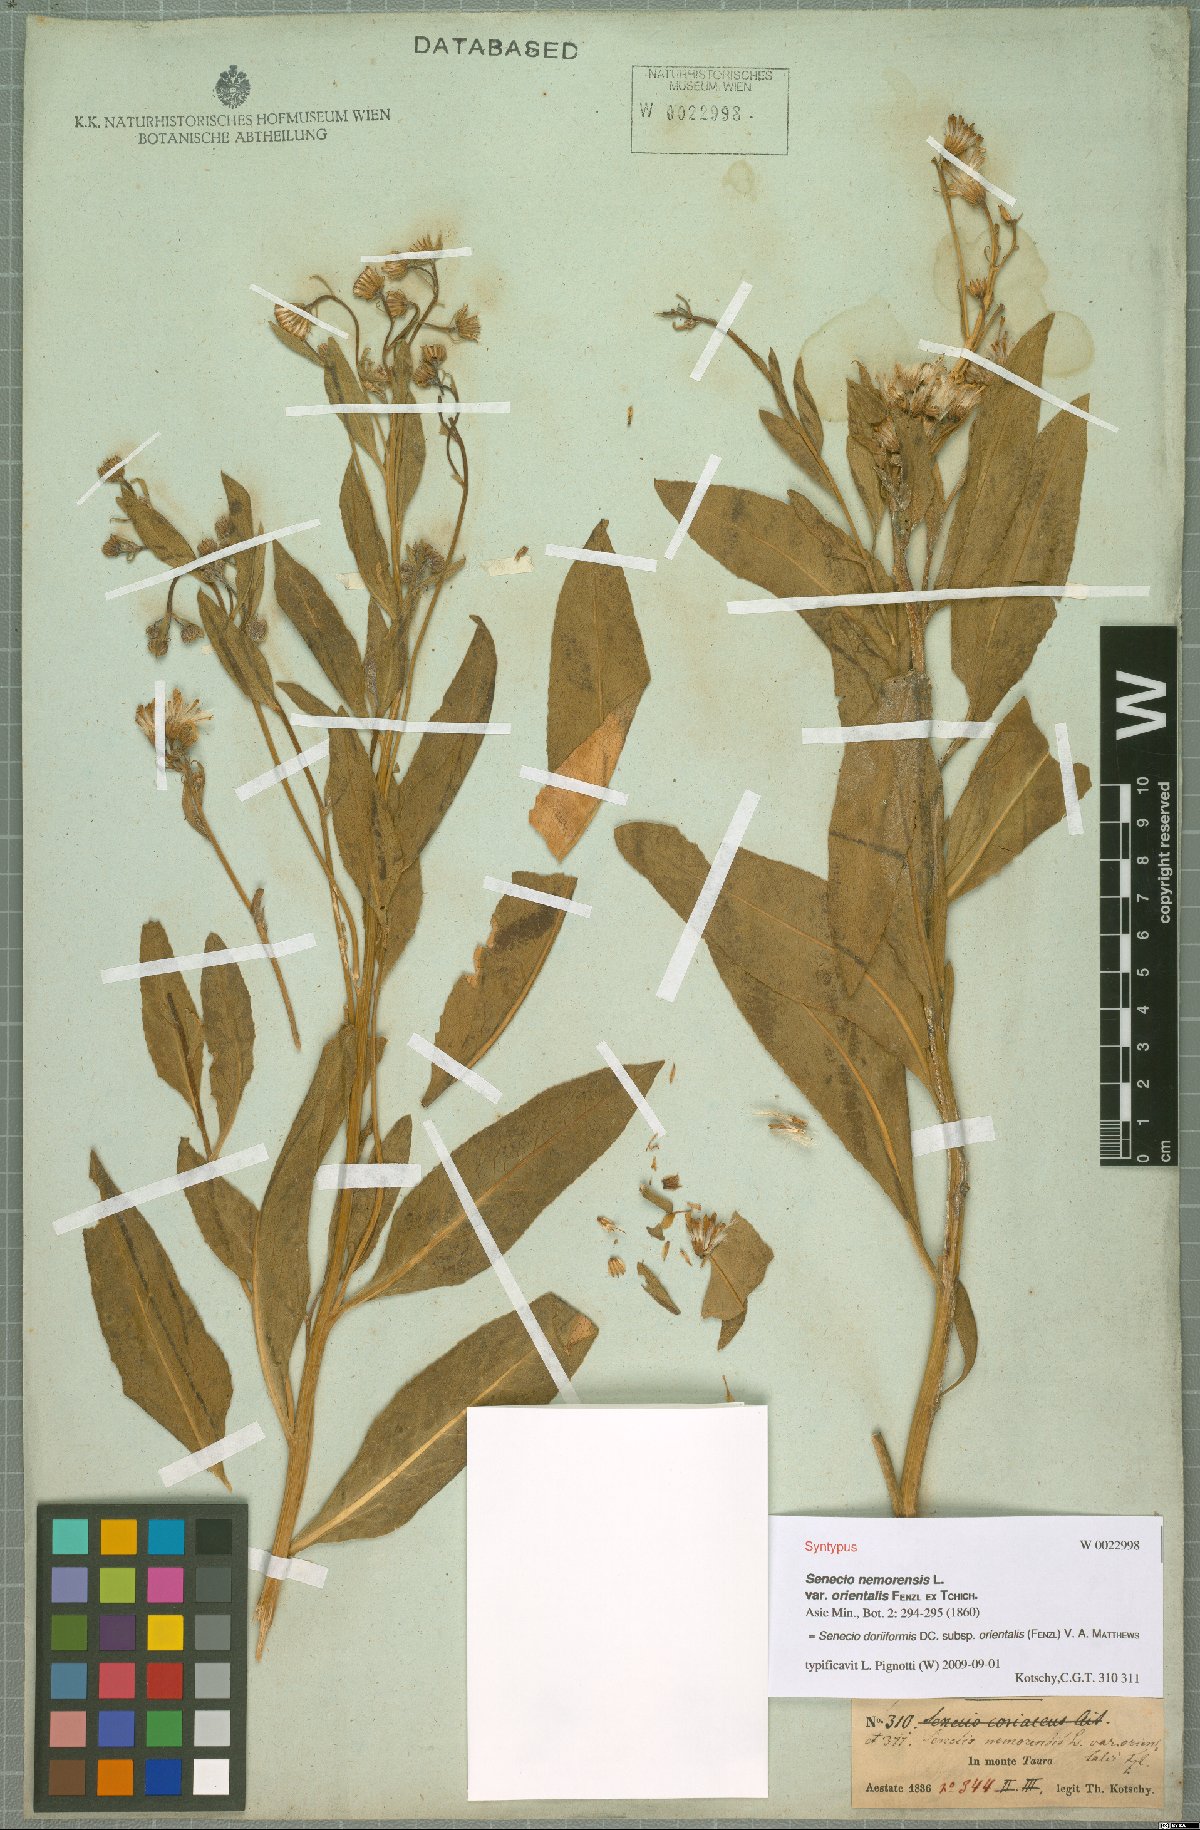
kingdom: Plantae
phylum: Tracheophyta
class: Magnoliopsida
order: Asterales
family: Asteraceae
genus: Senecio
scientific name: Senecio doriiformis
